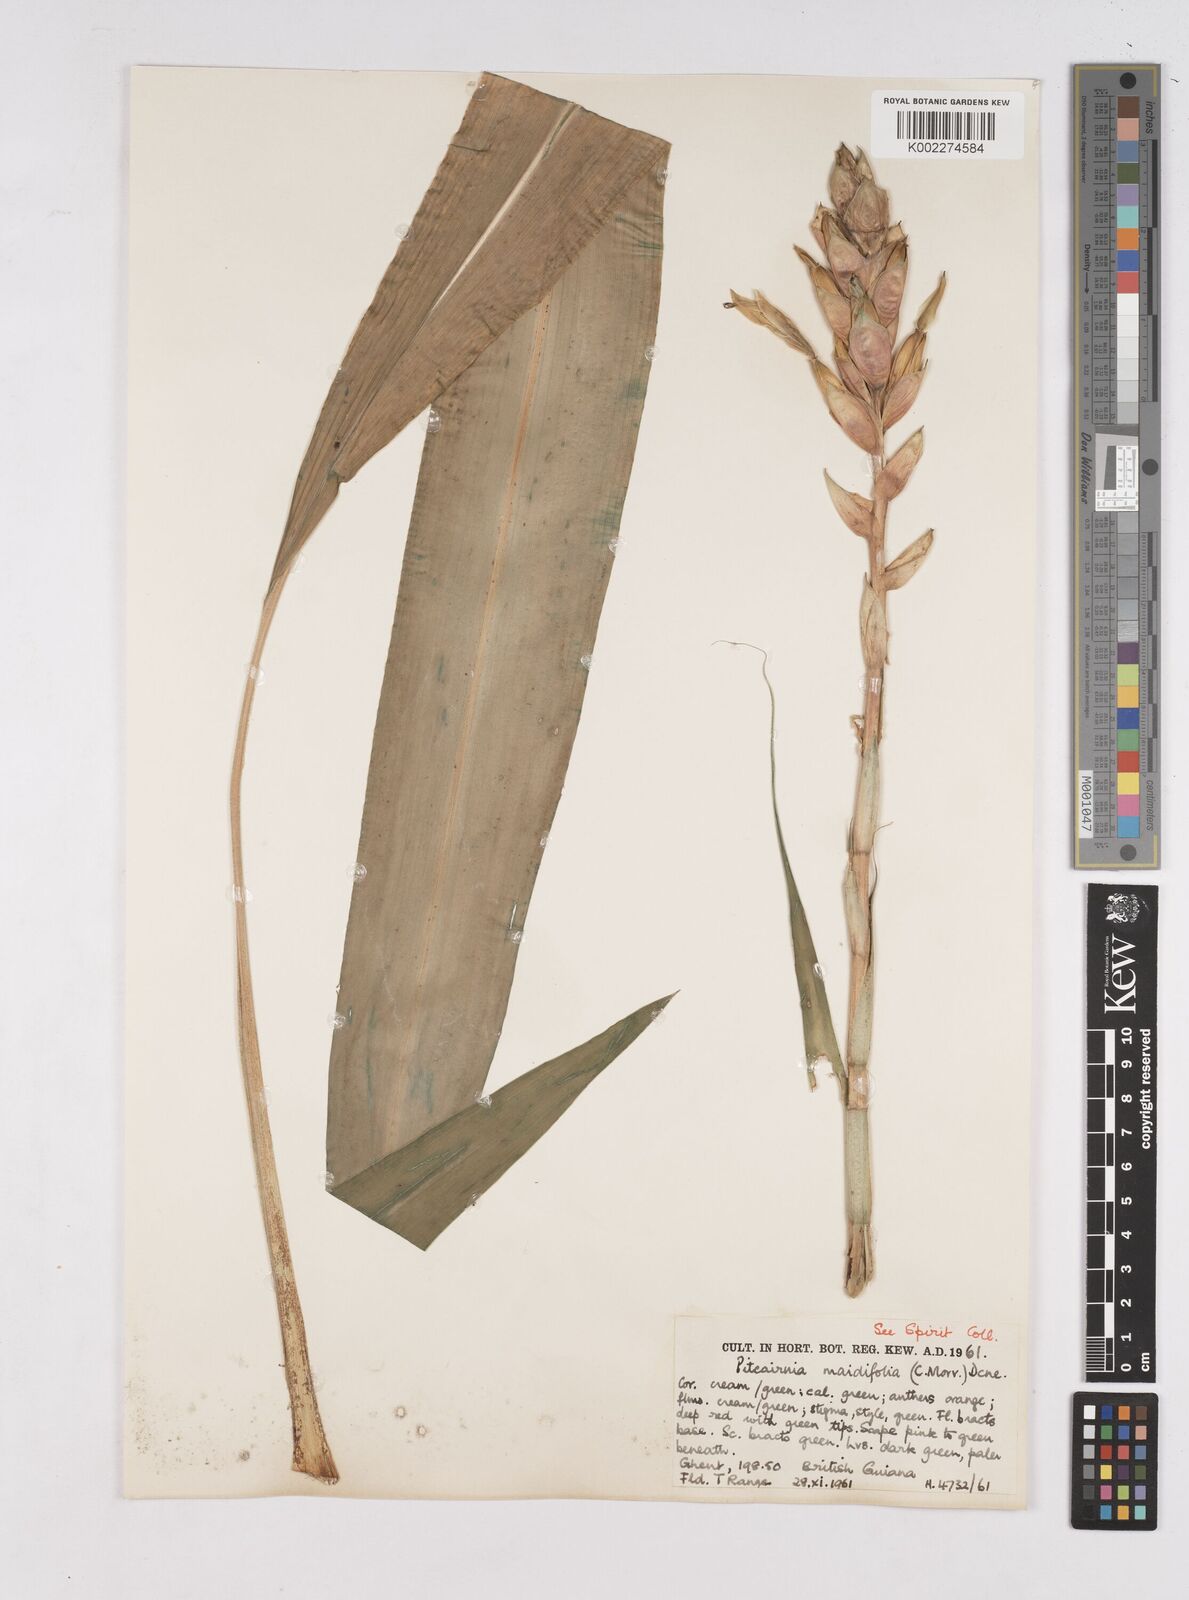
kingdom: Plantae
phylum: Tracheophyta
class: Liliopsida
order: Poales
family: Bromeliaceae
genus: Pitcairnia
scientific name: Pitcairnia maidifolia
